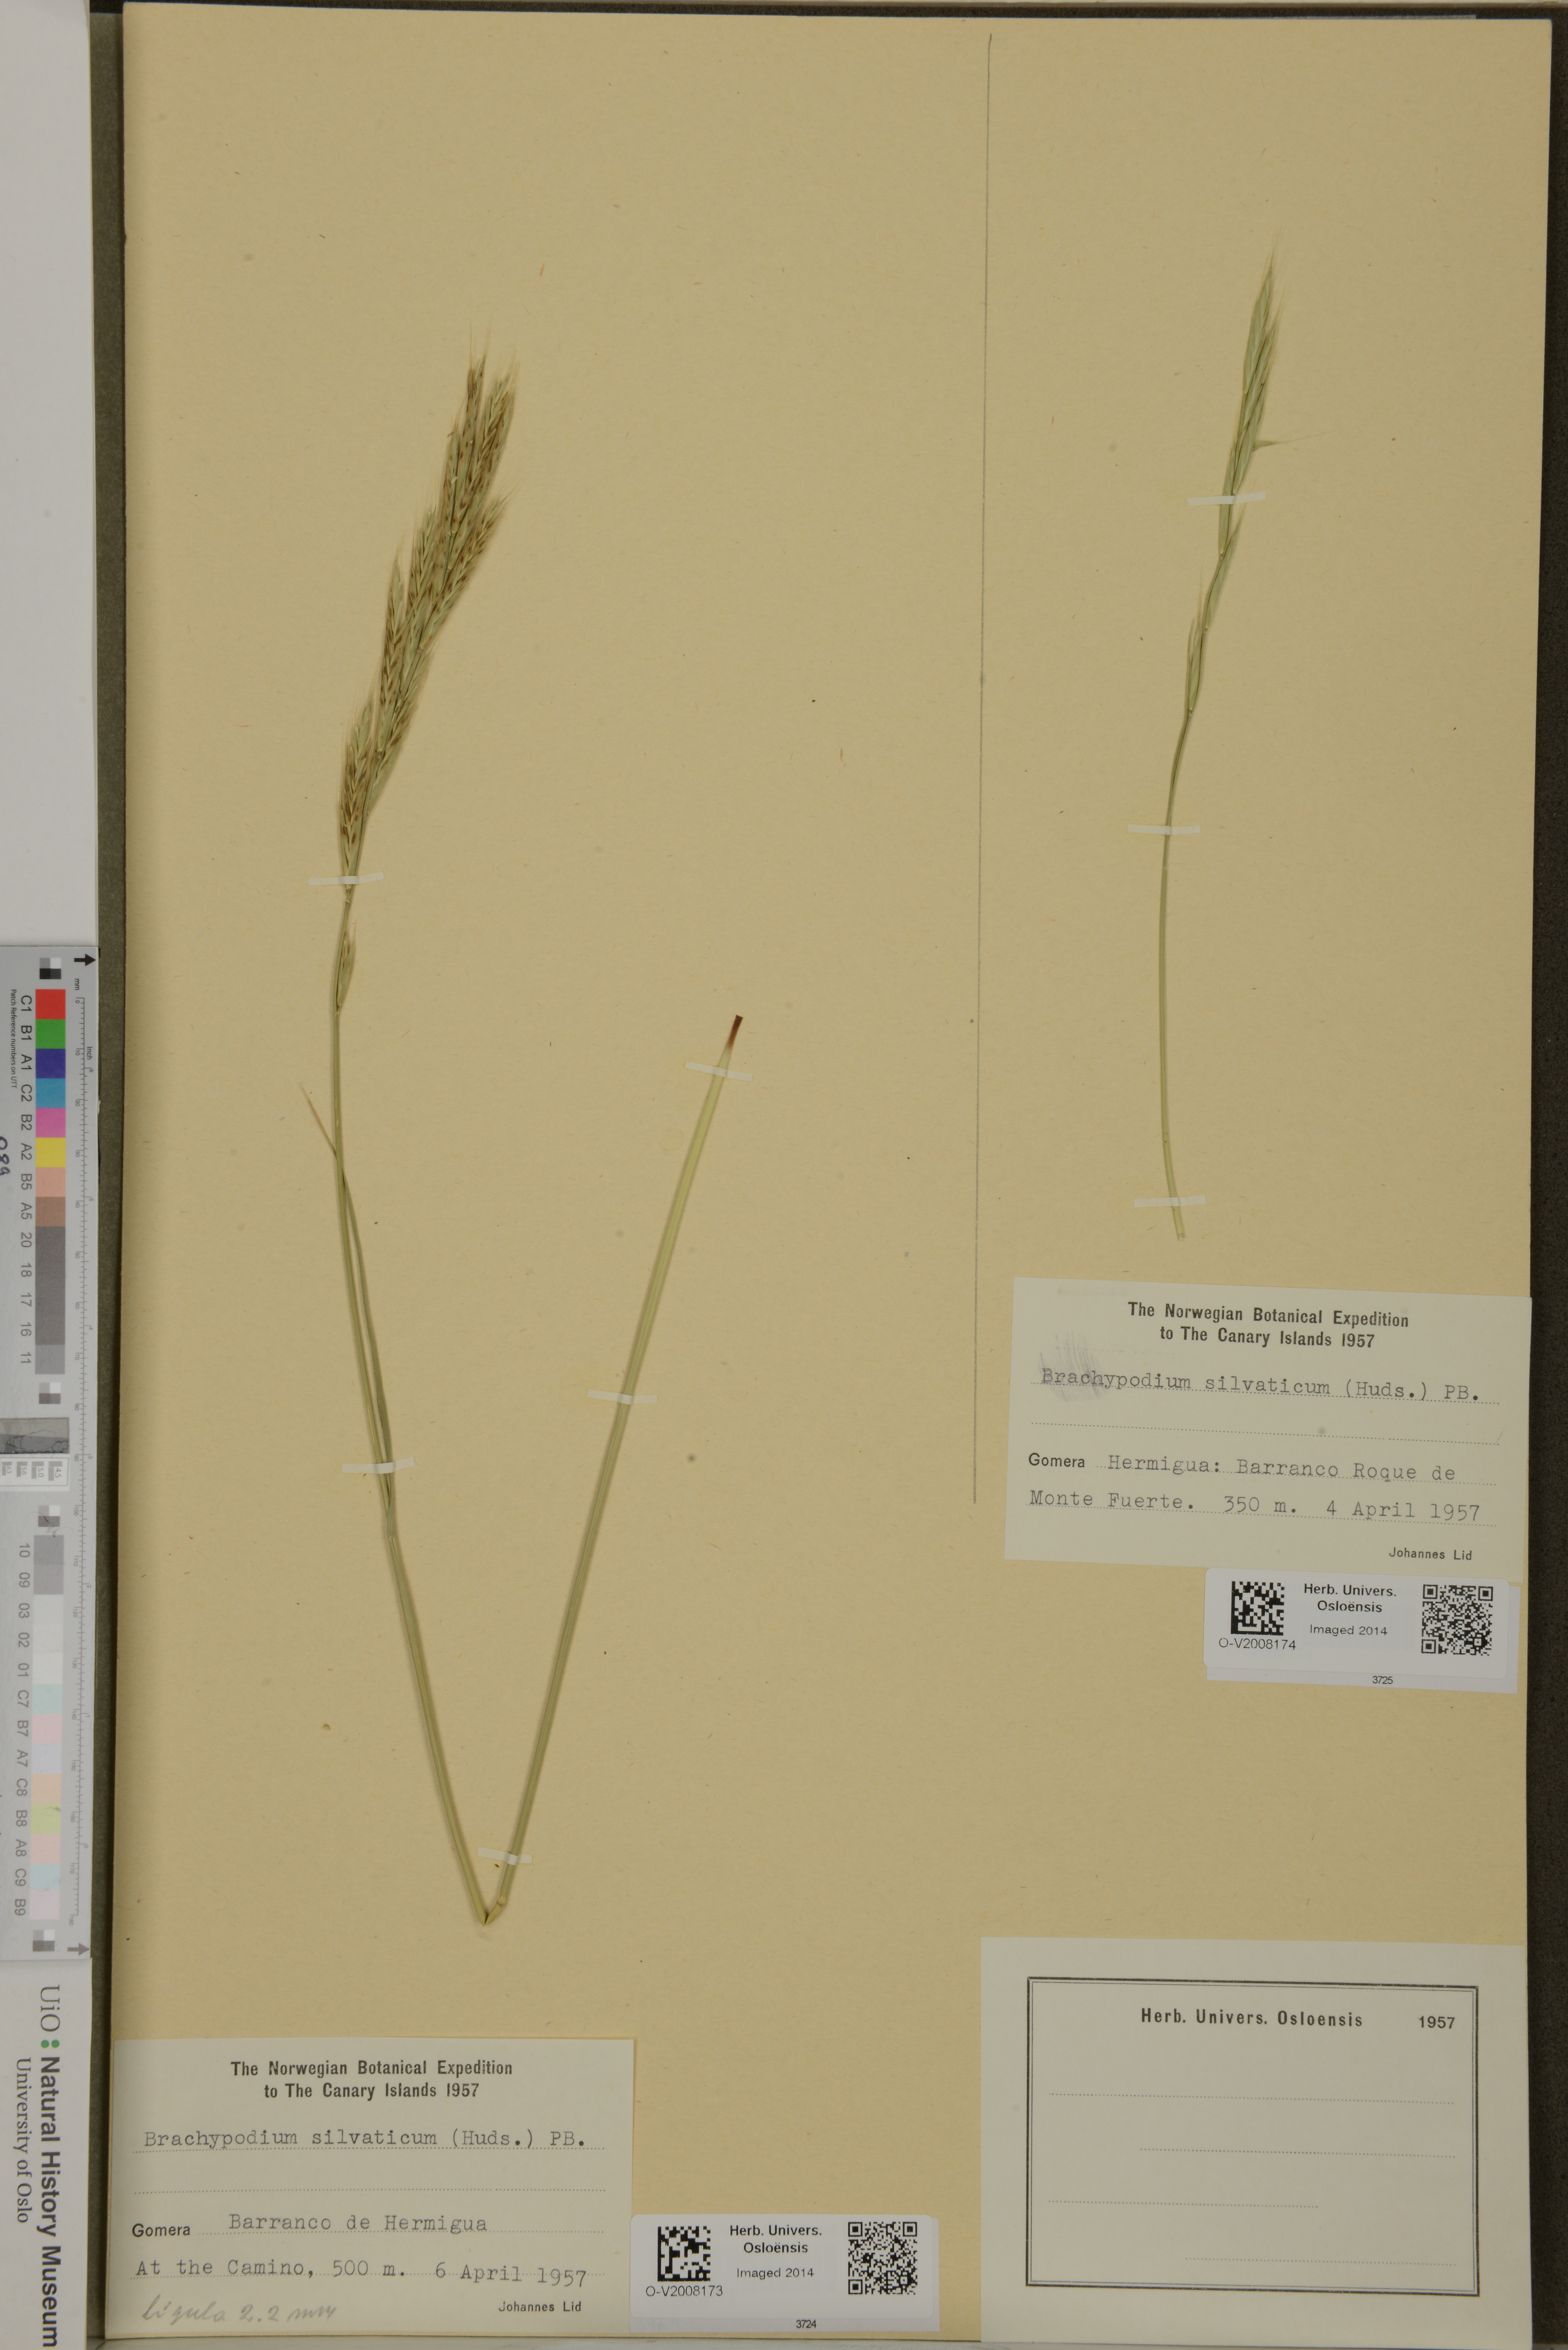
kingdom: Plantae
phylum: Tracheophyta
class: Liliopsida
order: Poales
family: Poaceae
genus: Brachypodium
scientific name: Brachypodium sylvaticum
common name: False-brome
